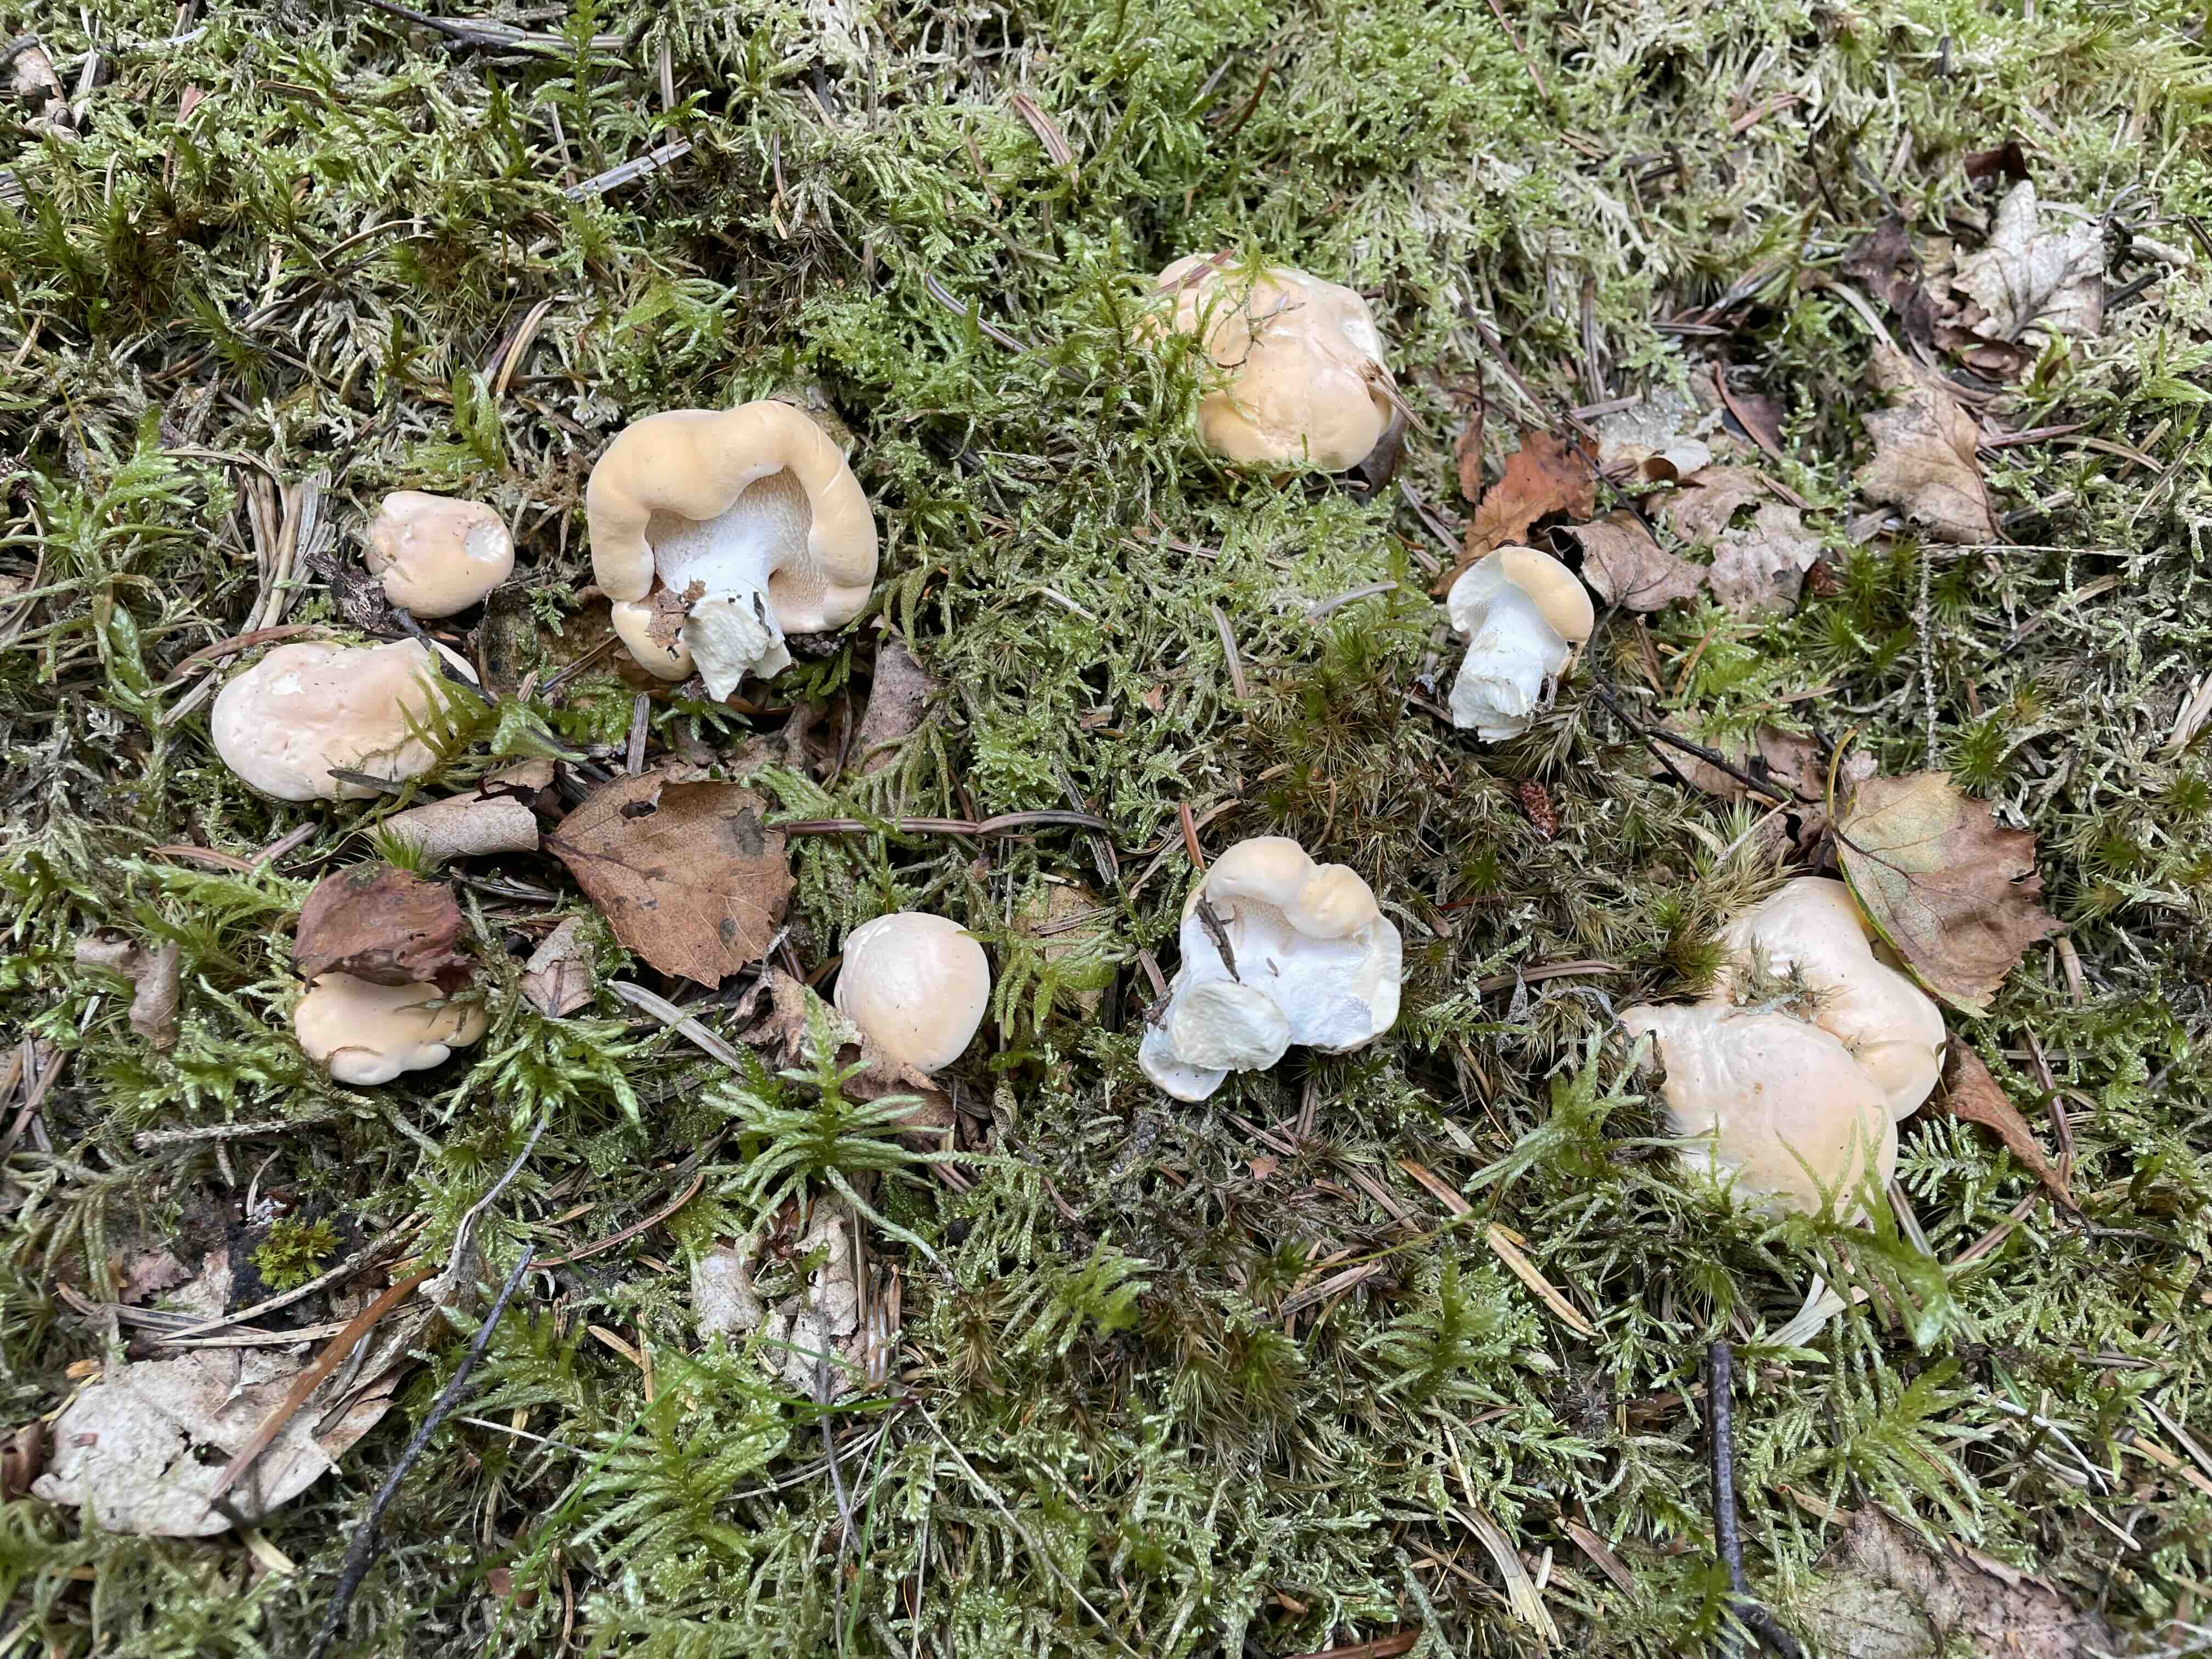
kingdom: Fungi
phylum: Basidiomycota
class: Agaricomycetes
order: Cantharellales
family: Hydnaceae
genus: Hydnum
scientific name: Hydnum repandum
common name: almindelig pigsvamp
